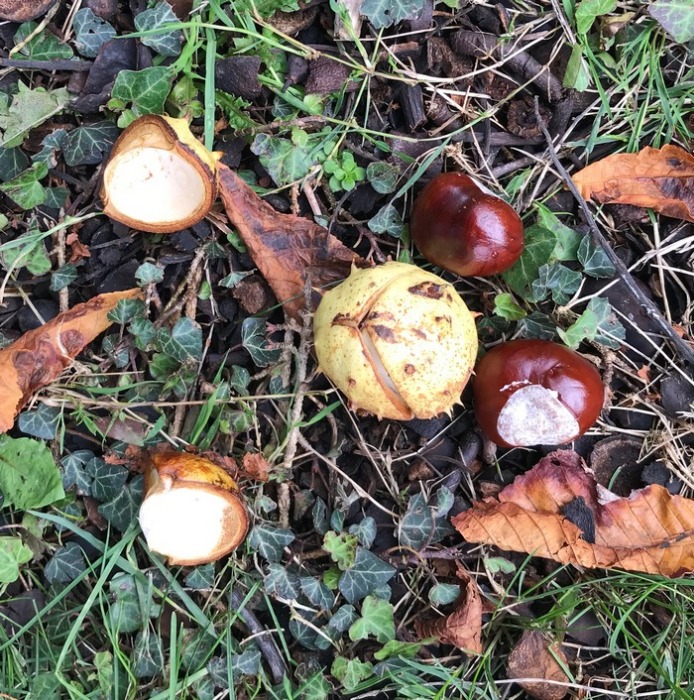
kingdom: Plantae
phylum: Tracheophyta
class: Magnoliopsida
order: Sapindales
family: Sapindaceae
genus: Aesculus
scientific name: Aesculus hippocastanum
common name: Hestekastanie
